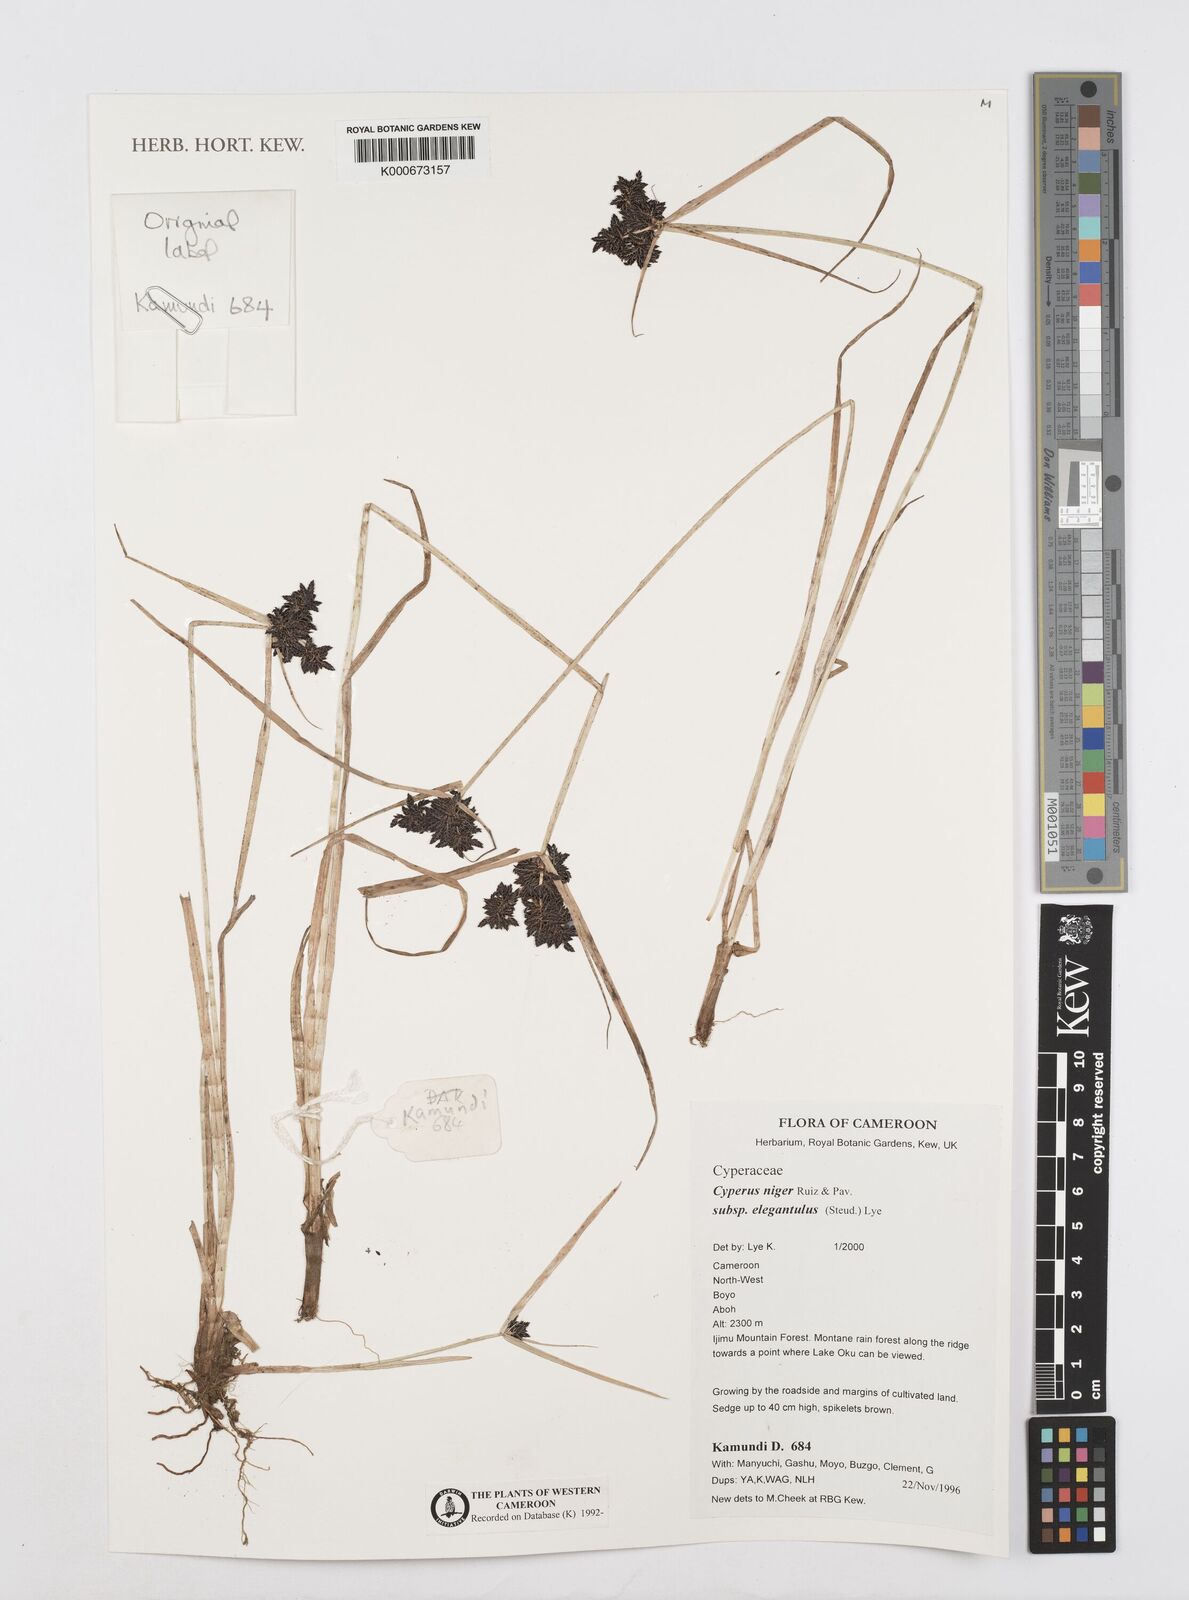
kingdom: Plantae
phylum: Tracheophyta
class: Liliopsida
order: Poales
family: Cyperaceae
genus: Cyperus
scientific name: Cyperus elegantulus
